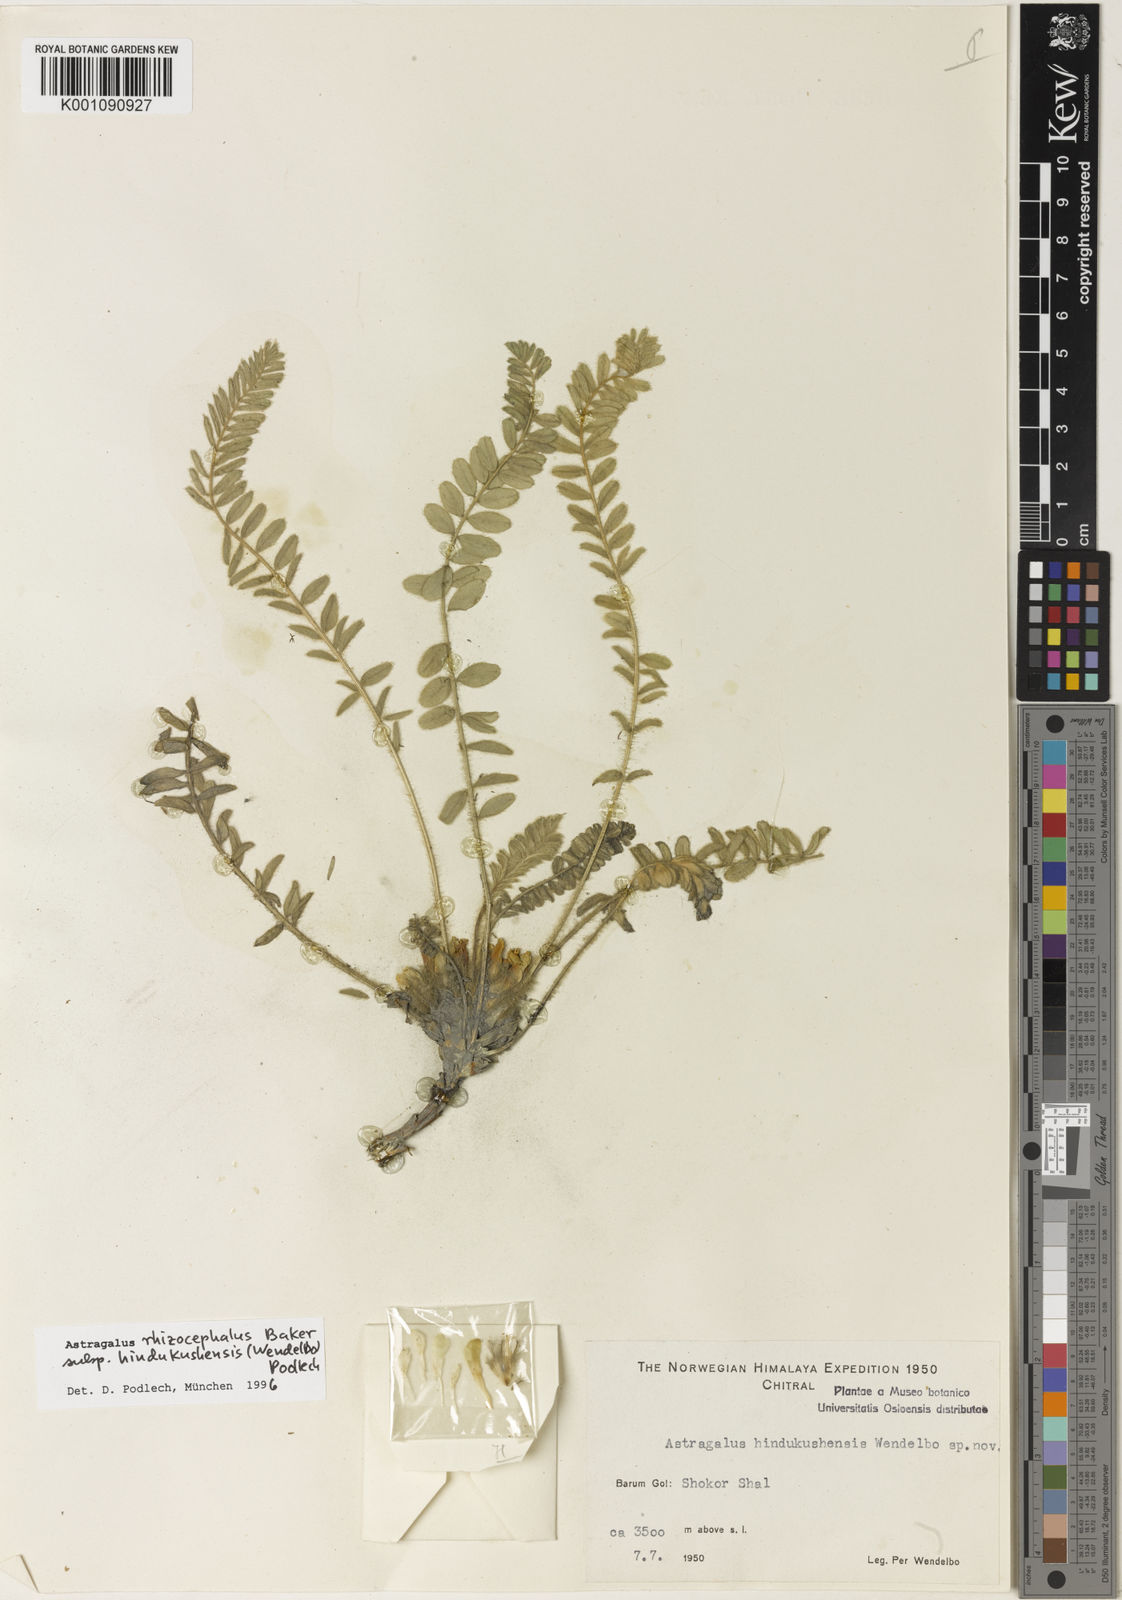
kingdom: Plantae
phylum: Tracheophyta
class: Magnoliopsida
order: Fabales
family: Fabaceae
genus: Astragalus
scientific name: Astragalus
